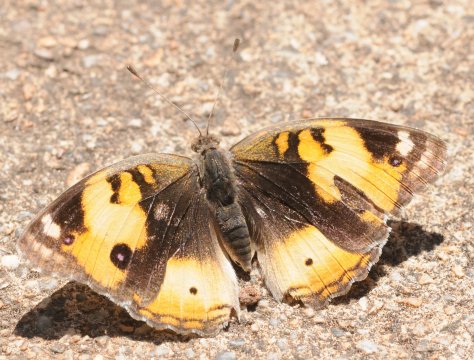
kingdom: Animalia
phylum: Arthropoda
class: Insecta
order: Lepidoptera
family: Nymphalidae
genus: Junonia
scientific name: Junonia hierta
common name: Yellow Pansy
